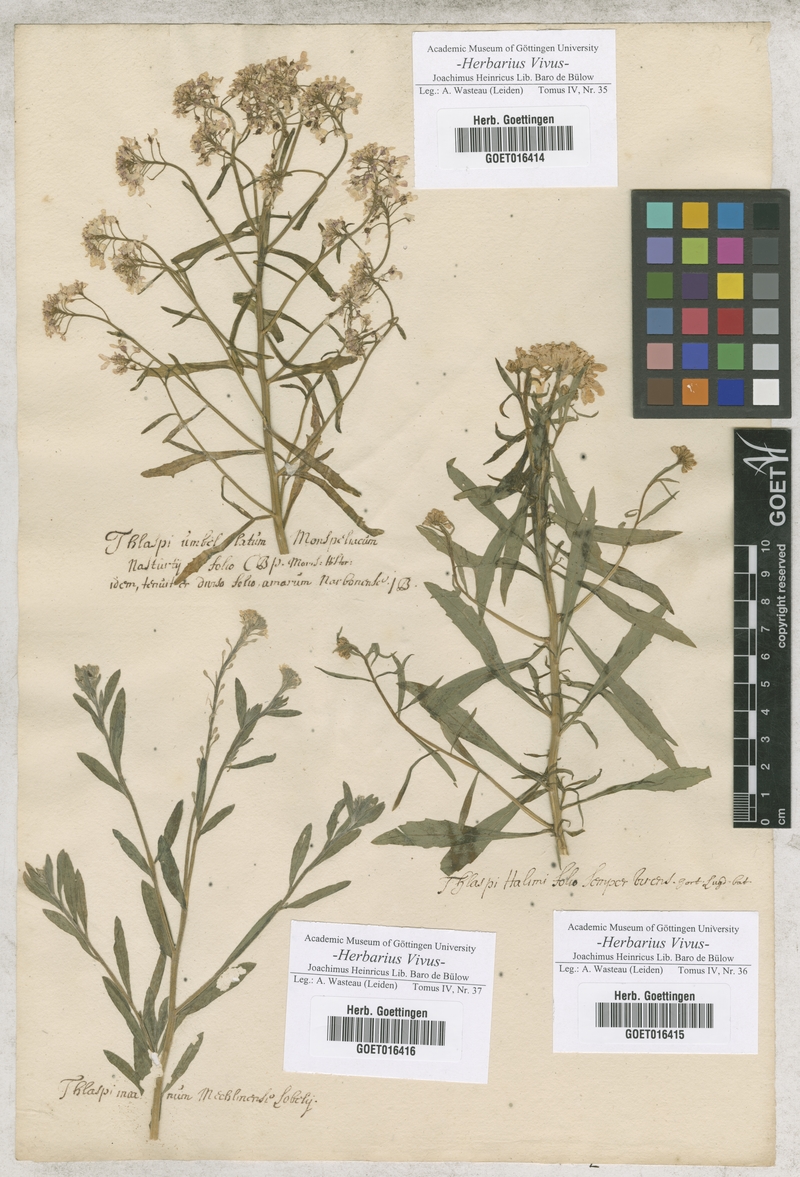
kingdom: Plantae
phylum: Tracheophyta
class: Magnoliopsida
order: Brassicales
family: Brassicaceae
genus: Thlaspi
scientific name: Thlaspi
